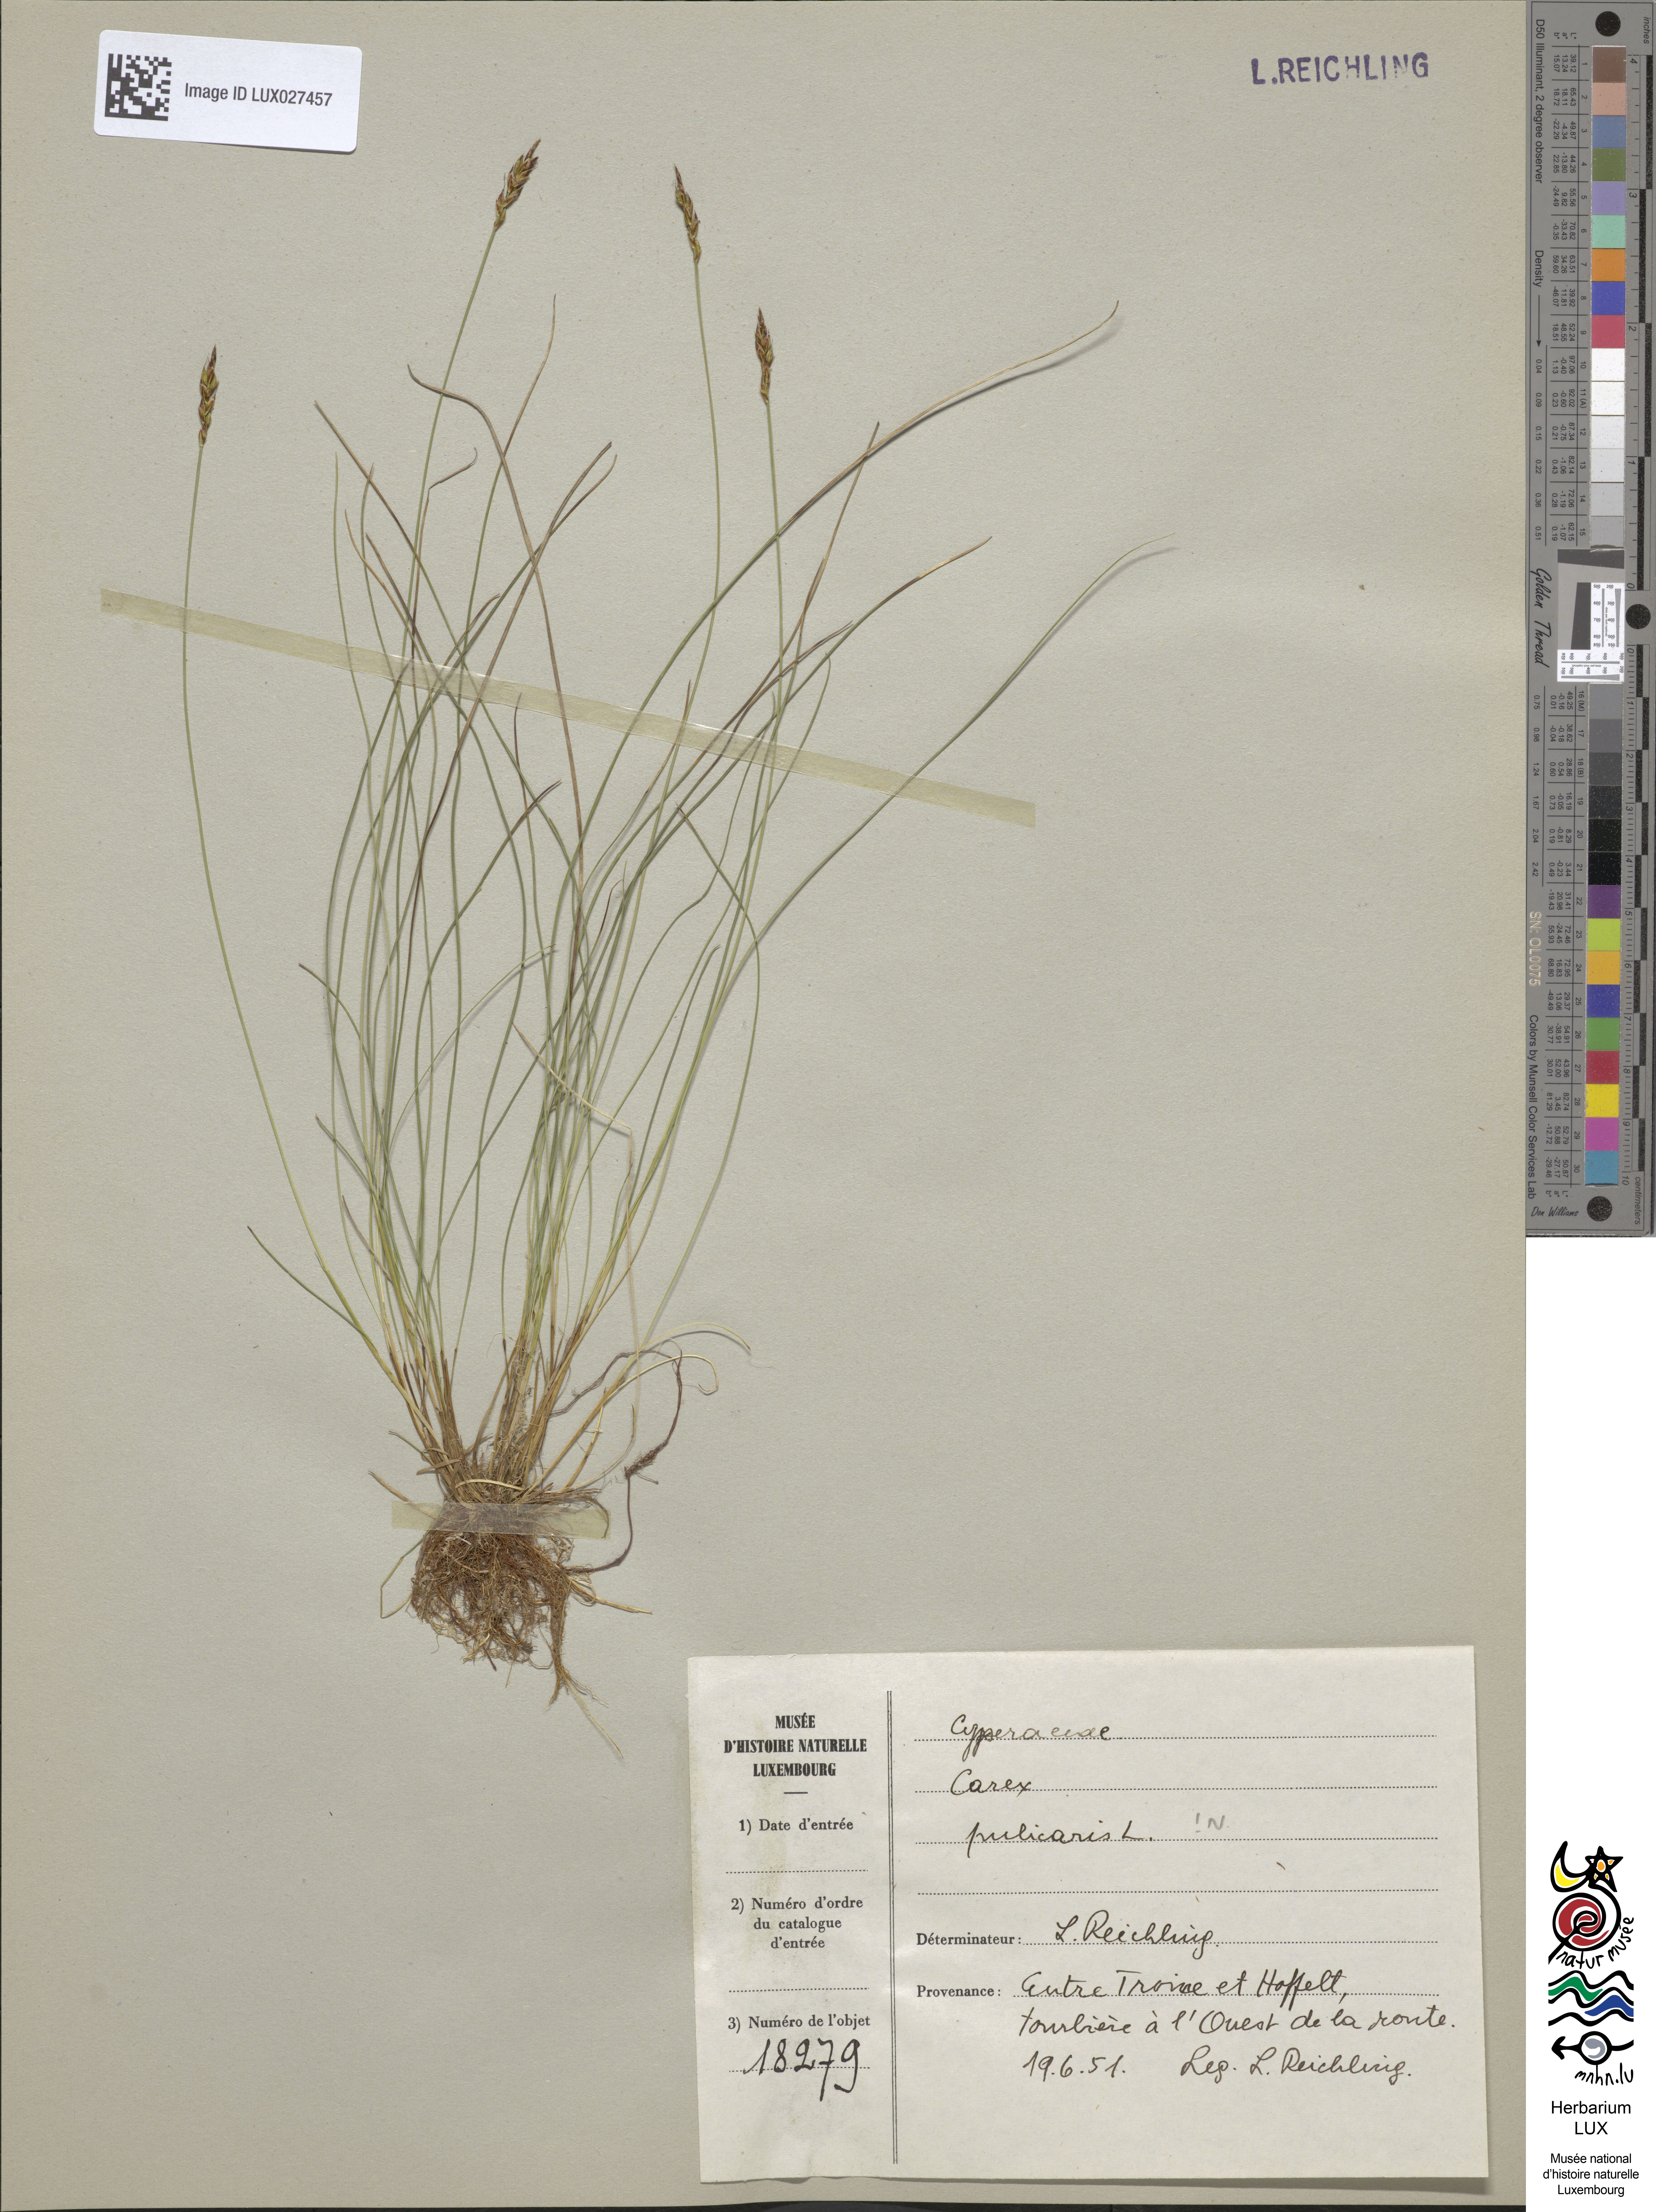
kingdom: Plantae
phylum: Tracheophyta
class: Liliopsida
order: Poales
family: Cyperaceae
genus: Carex
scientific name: Carex pulicaris
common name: Flea sedge
